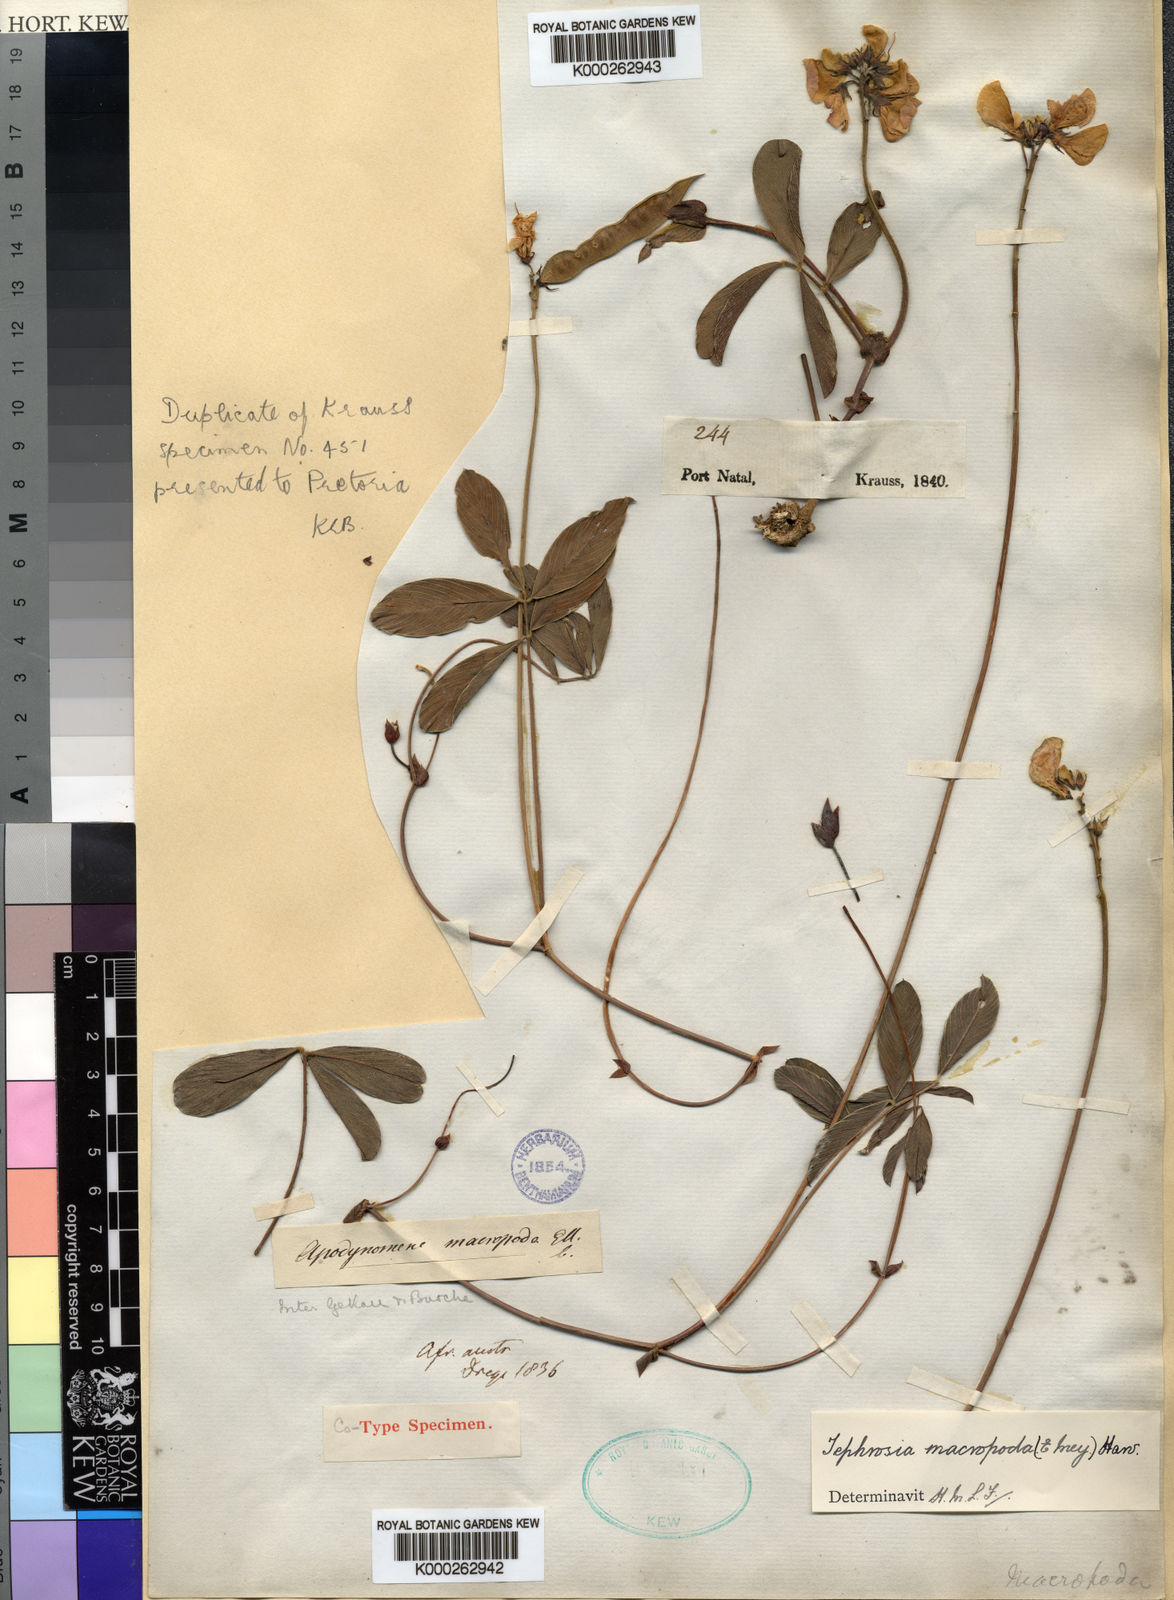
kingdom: Plantae
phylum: Tracheophyta
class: Magnoliopsida
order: Fabales
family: Fabaceae
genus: Tephrosia
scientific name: Tephrosia macropoda
